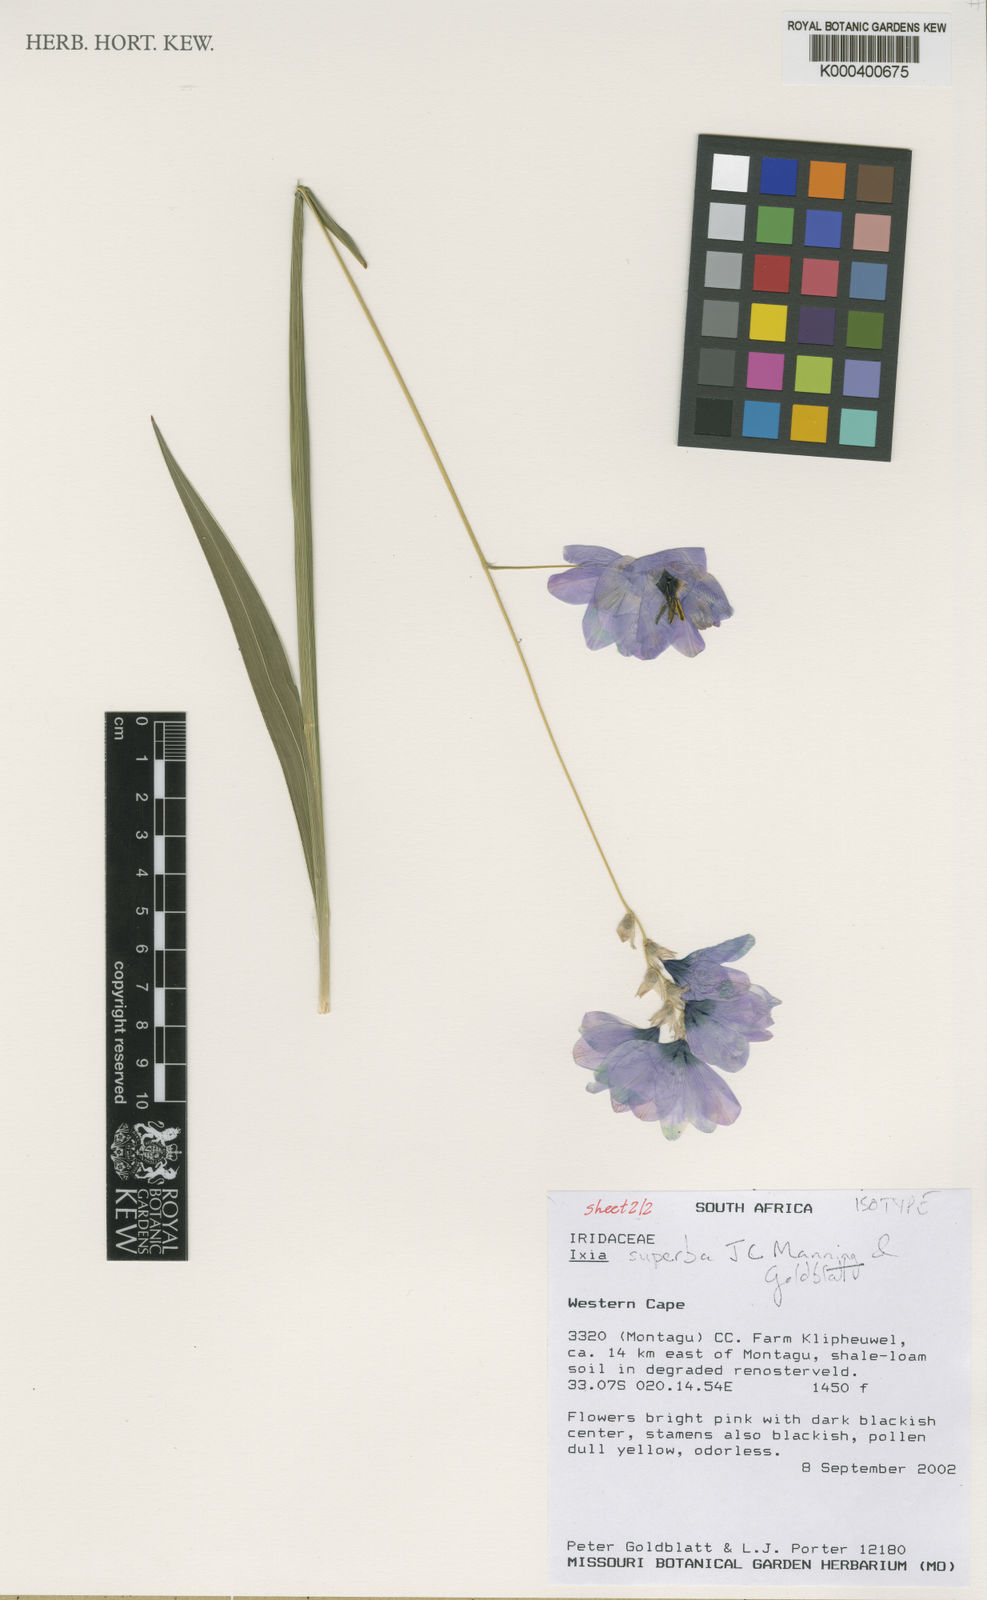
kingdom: Plantae
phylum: Tracheophyta
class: Liliopsida
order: Asparagales
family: Iridaceae
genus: Ixia
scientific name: Ixia superba
